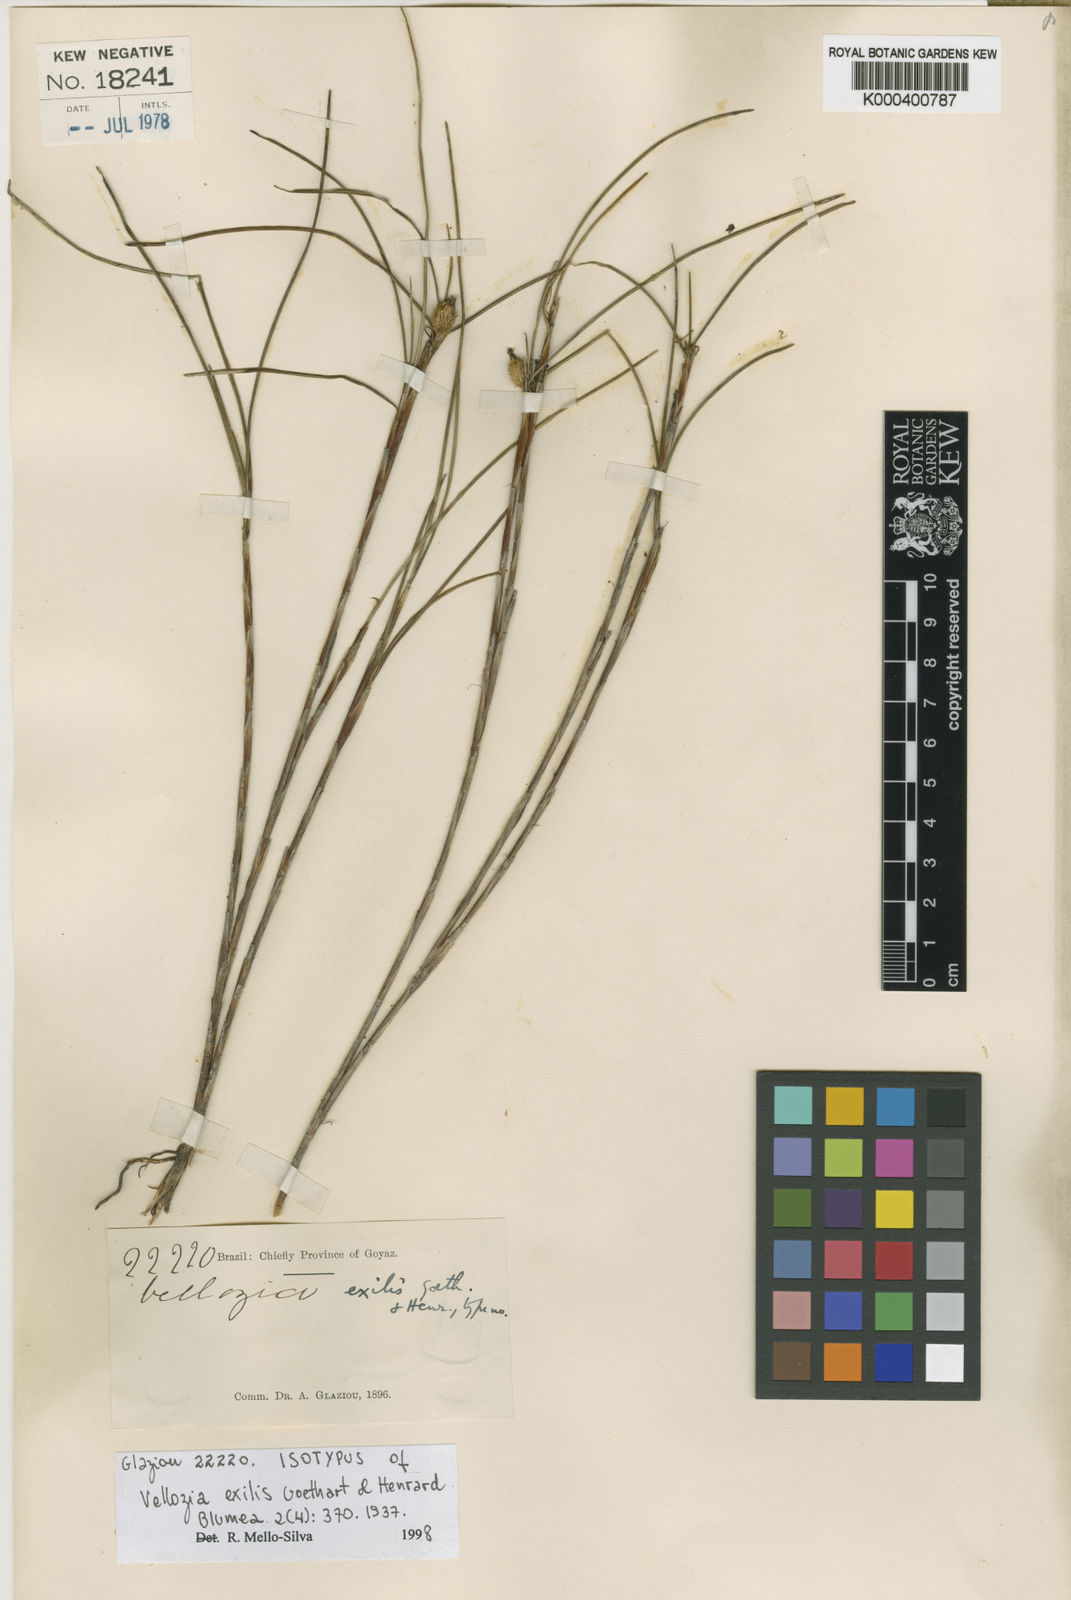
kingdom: Plantae
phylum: Tracheophyta
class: Liliopsida
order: Pandanales
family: Velloziaceae
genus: Vellozia
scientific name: Vellozia exilis
